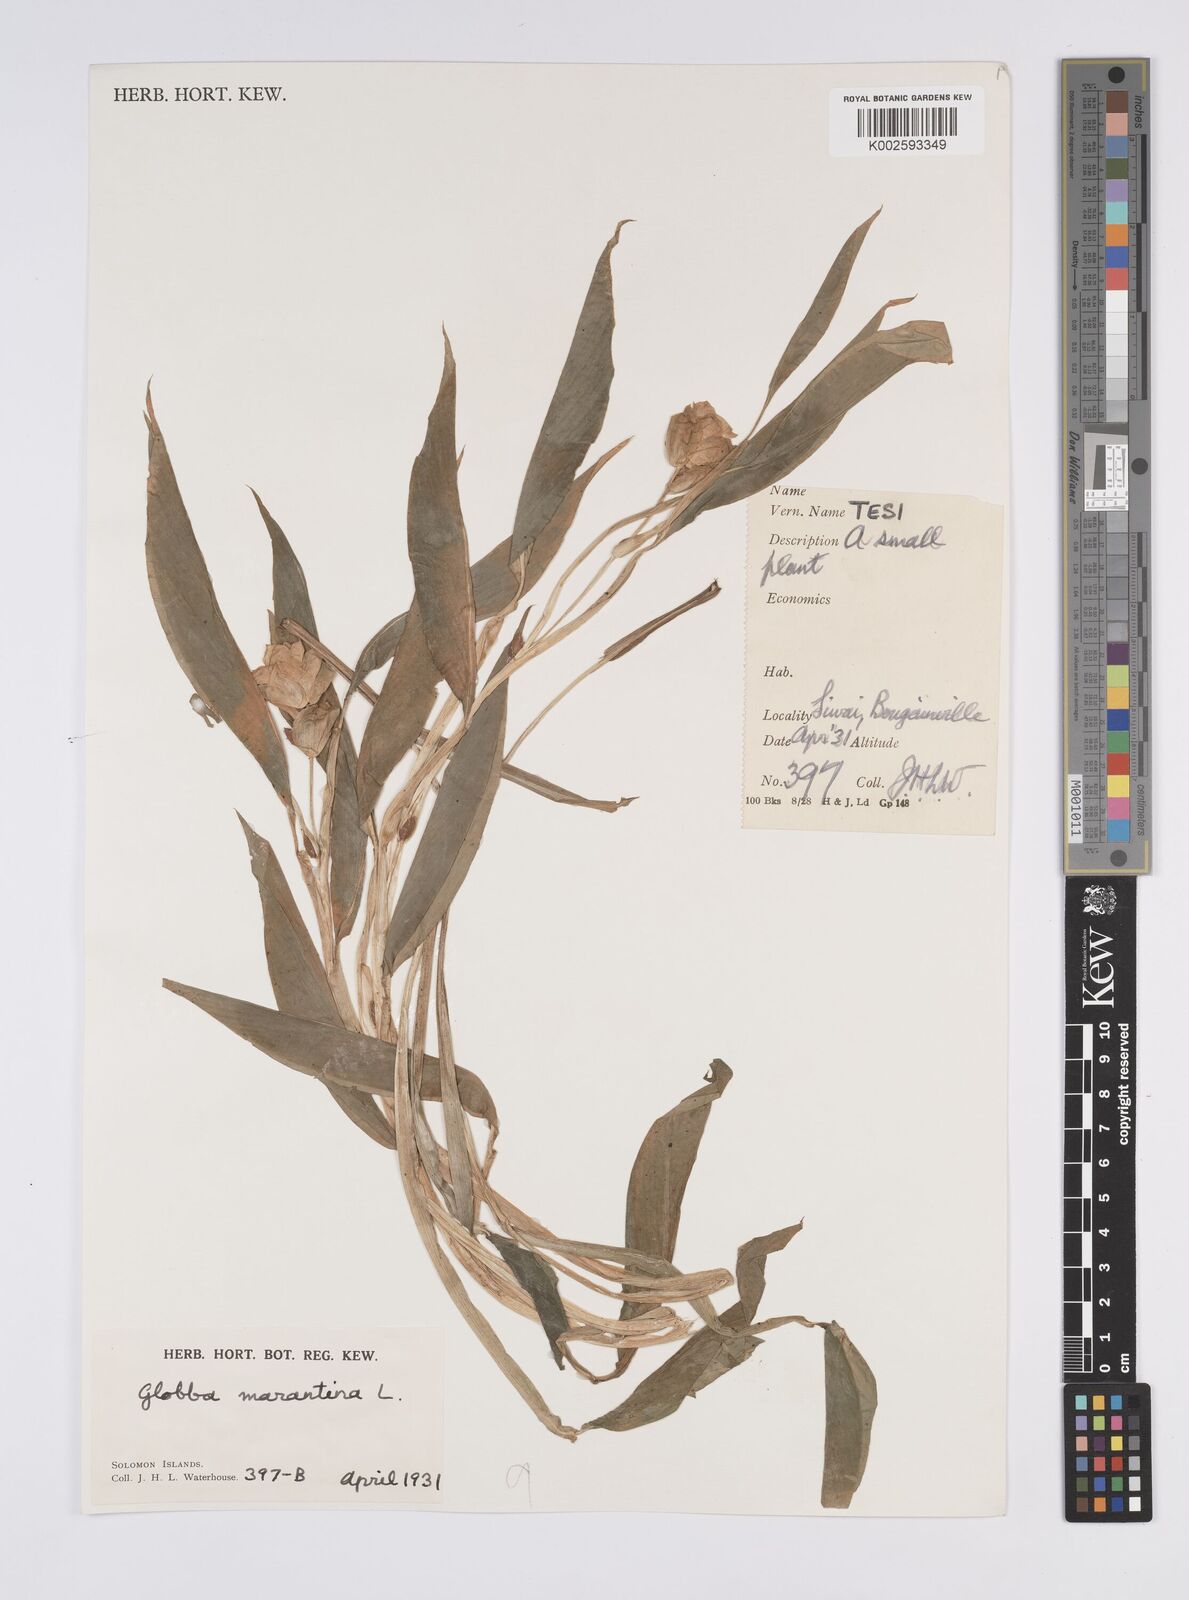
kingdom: Plantae
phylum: Tracheophyta
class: Liliopsida
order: Zingiberales
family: Zingiberaceae
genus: Globba
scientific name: Globba marantina
